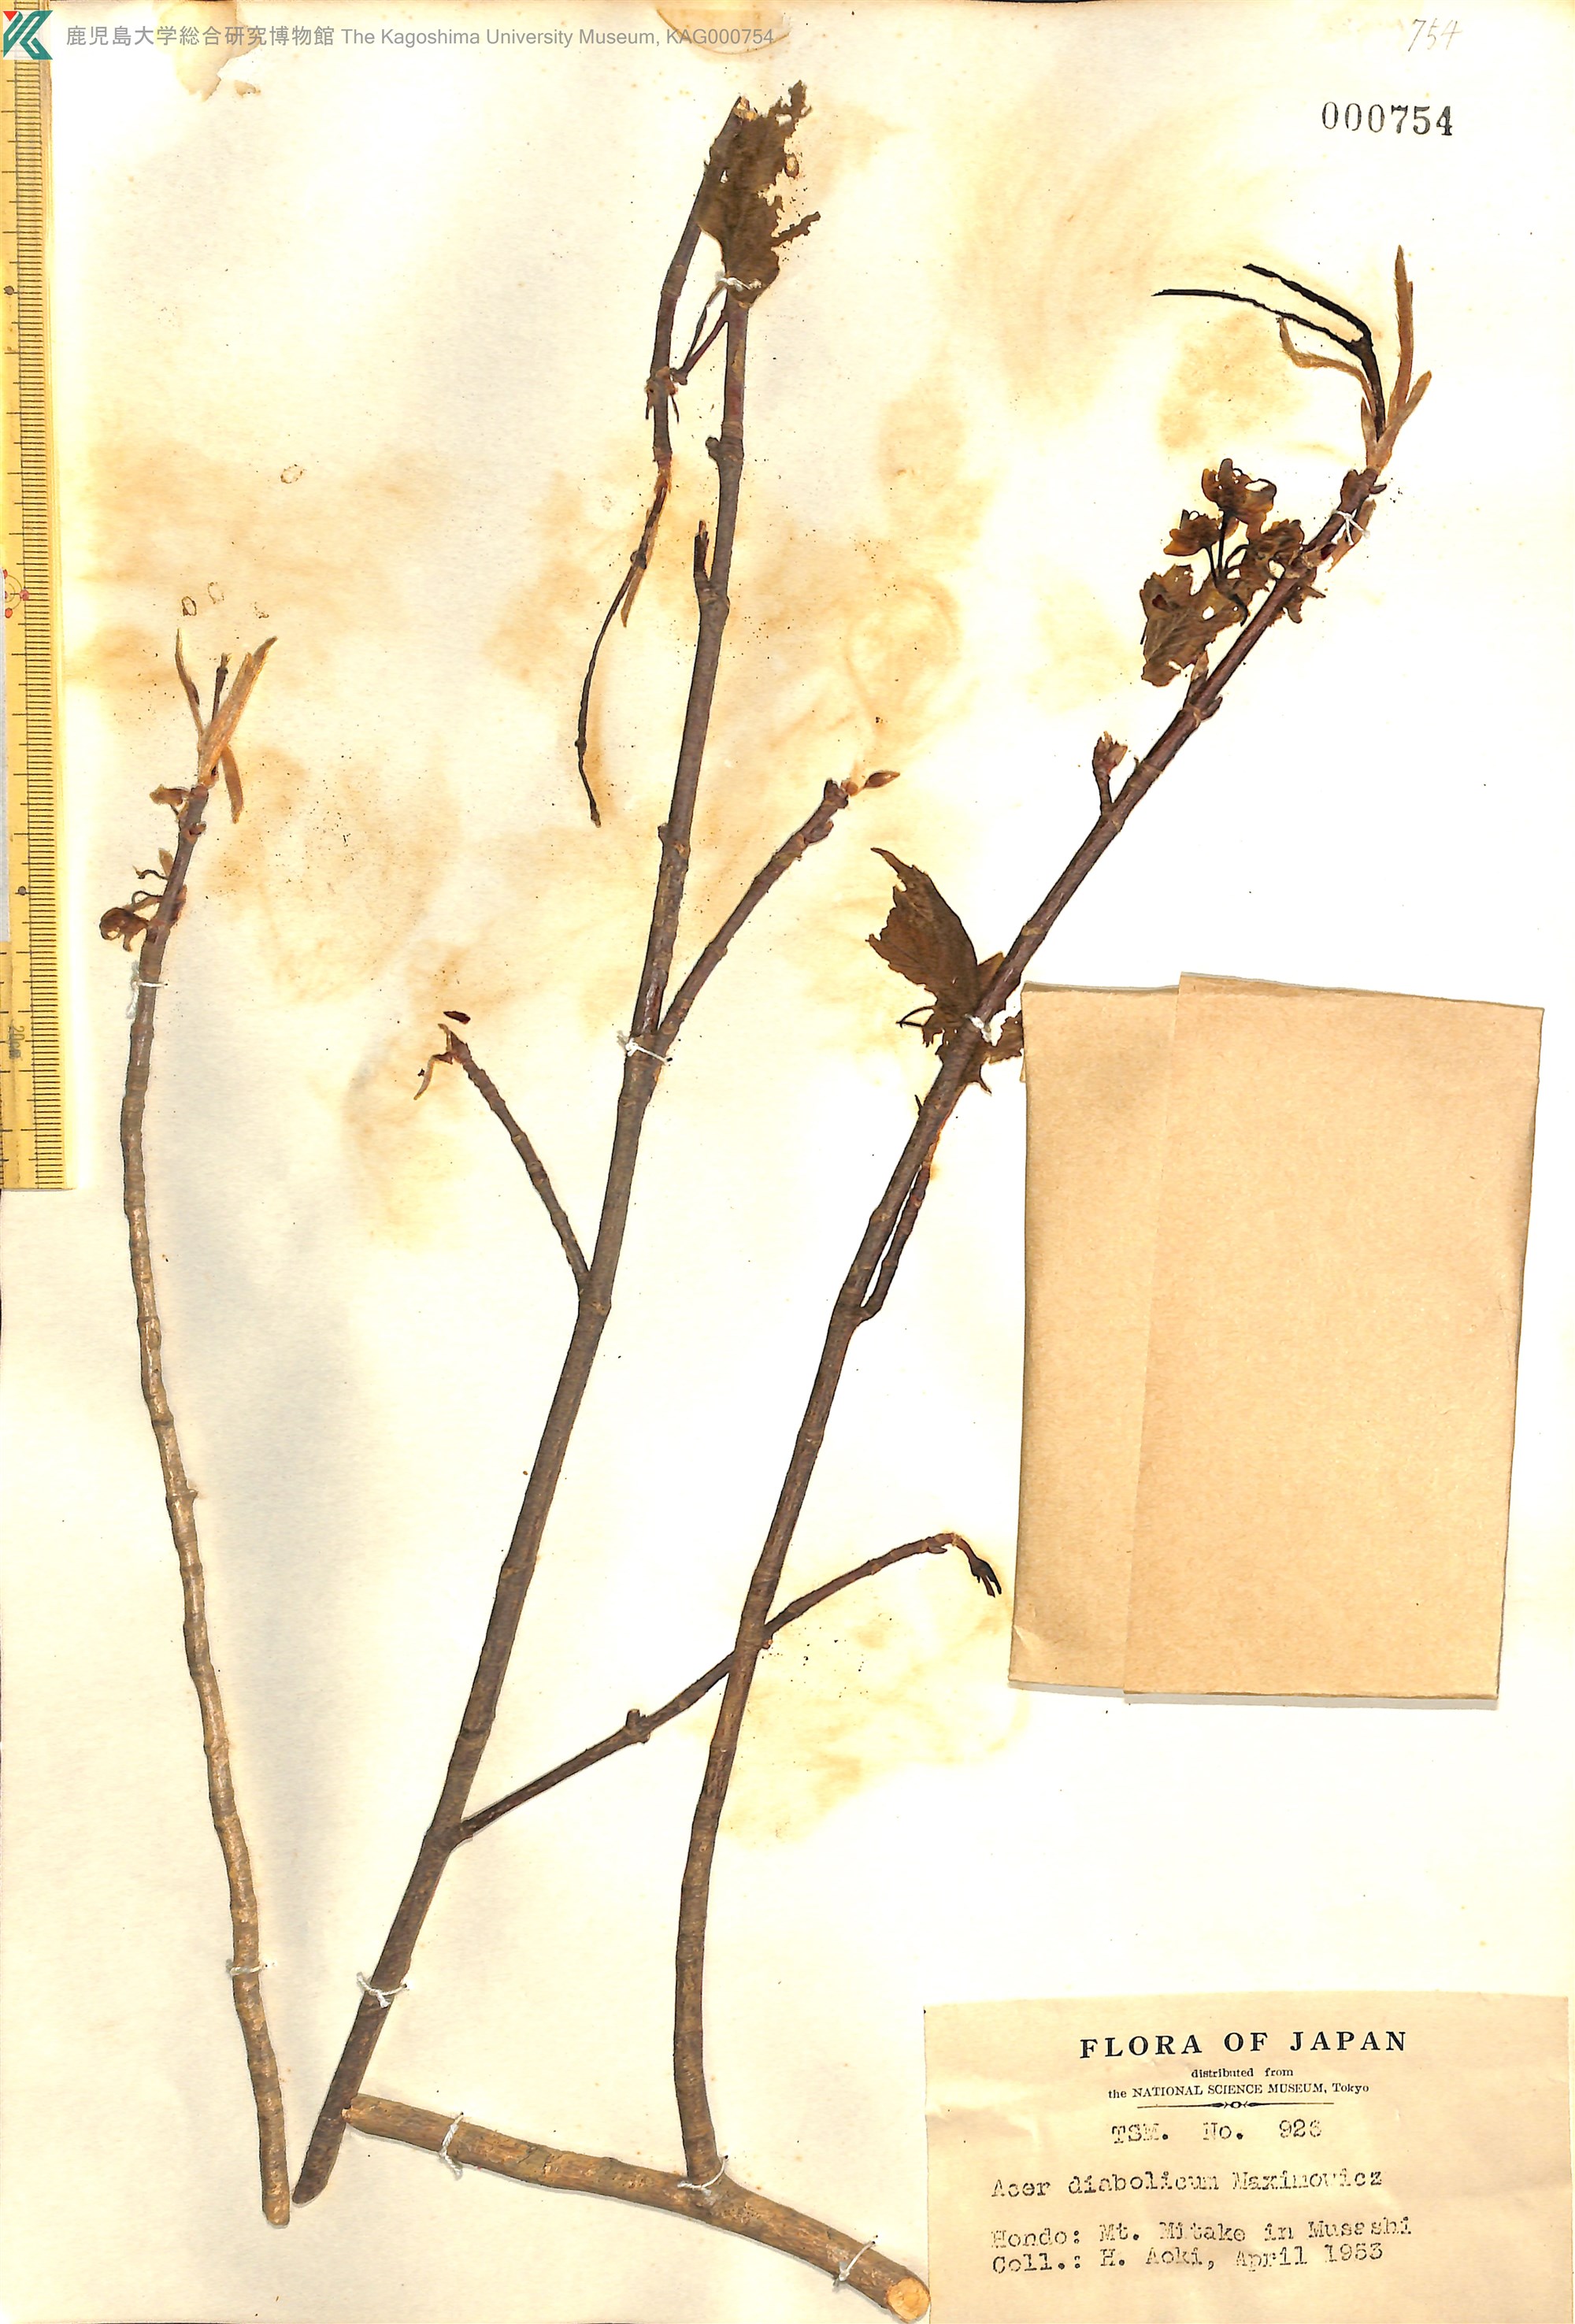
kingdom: Plantae
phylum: Tracheophyta
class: Magnoliopsida
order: Sapindales
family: Sapindaceae
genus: Acer
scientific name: Acer diabolicum
